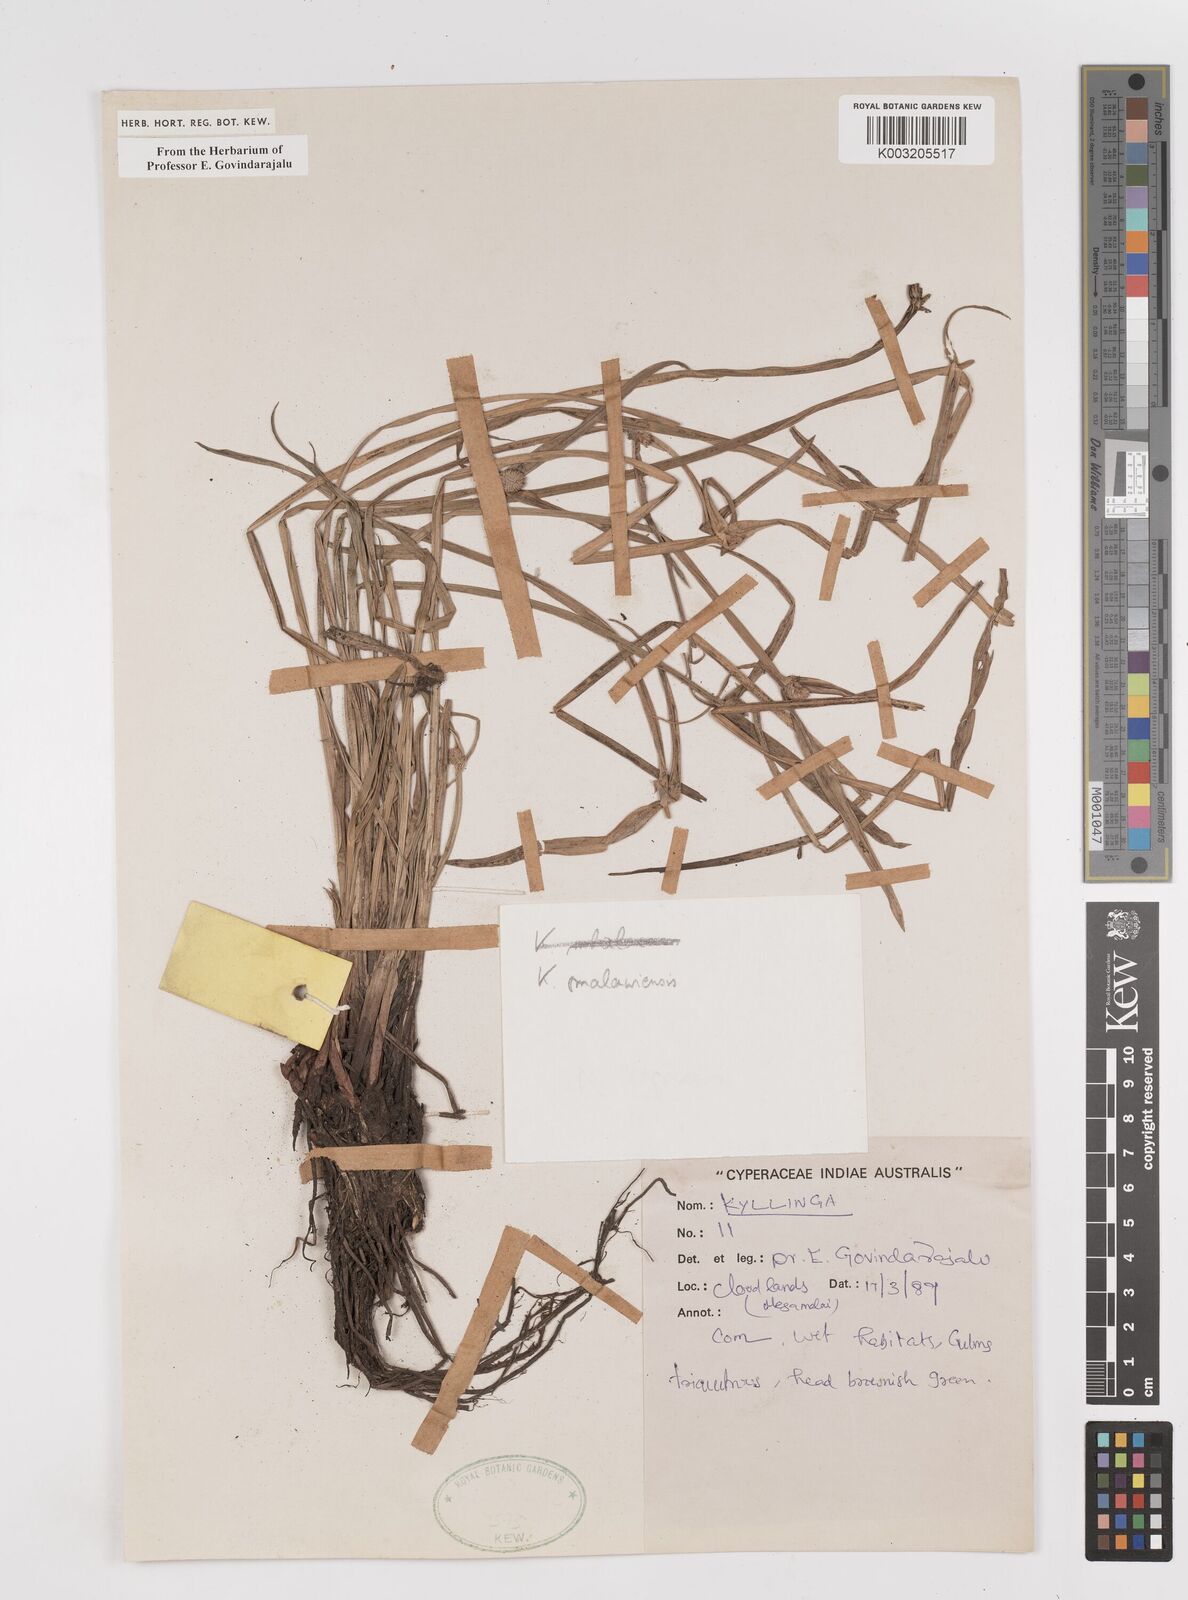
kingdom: Plantae
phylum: Tracheophyta
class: Liliopsida
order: Poales
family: Cyperaceae
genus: Cyperus
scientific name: Cyperus
